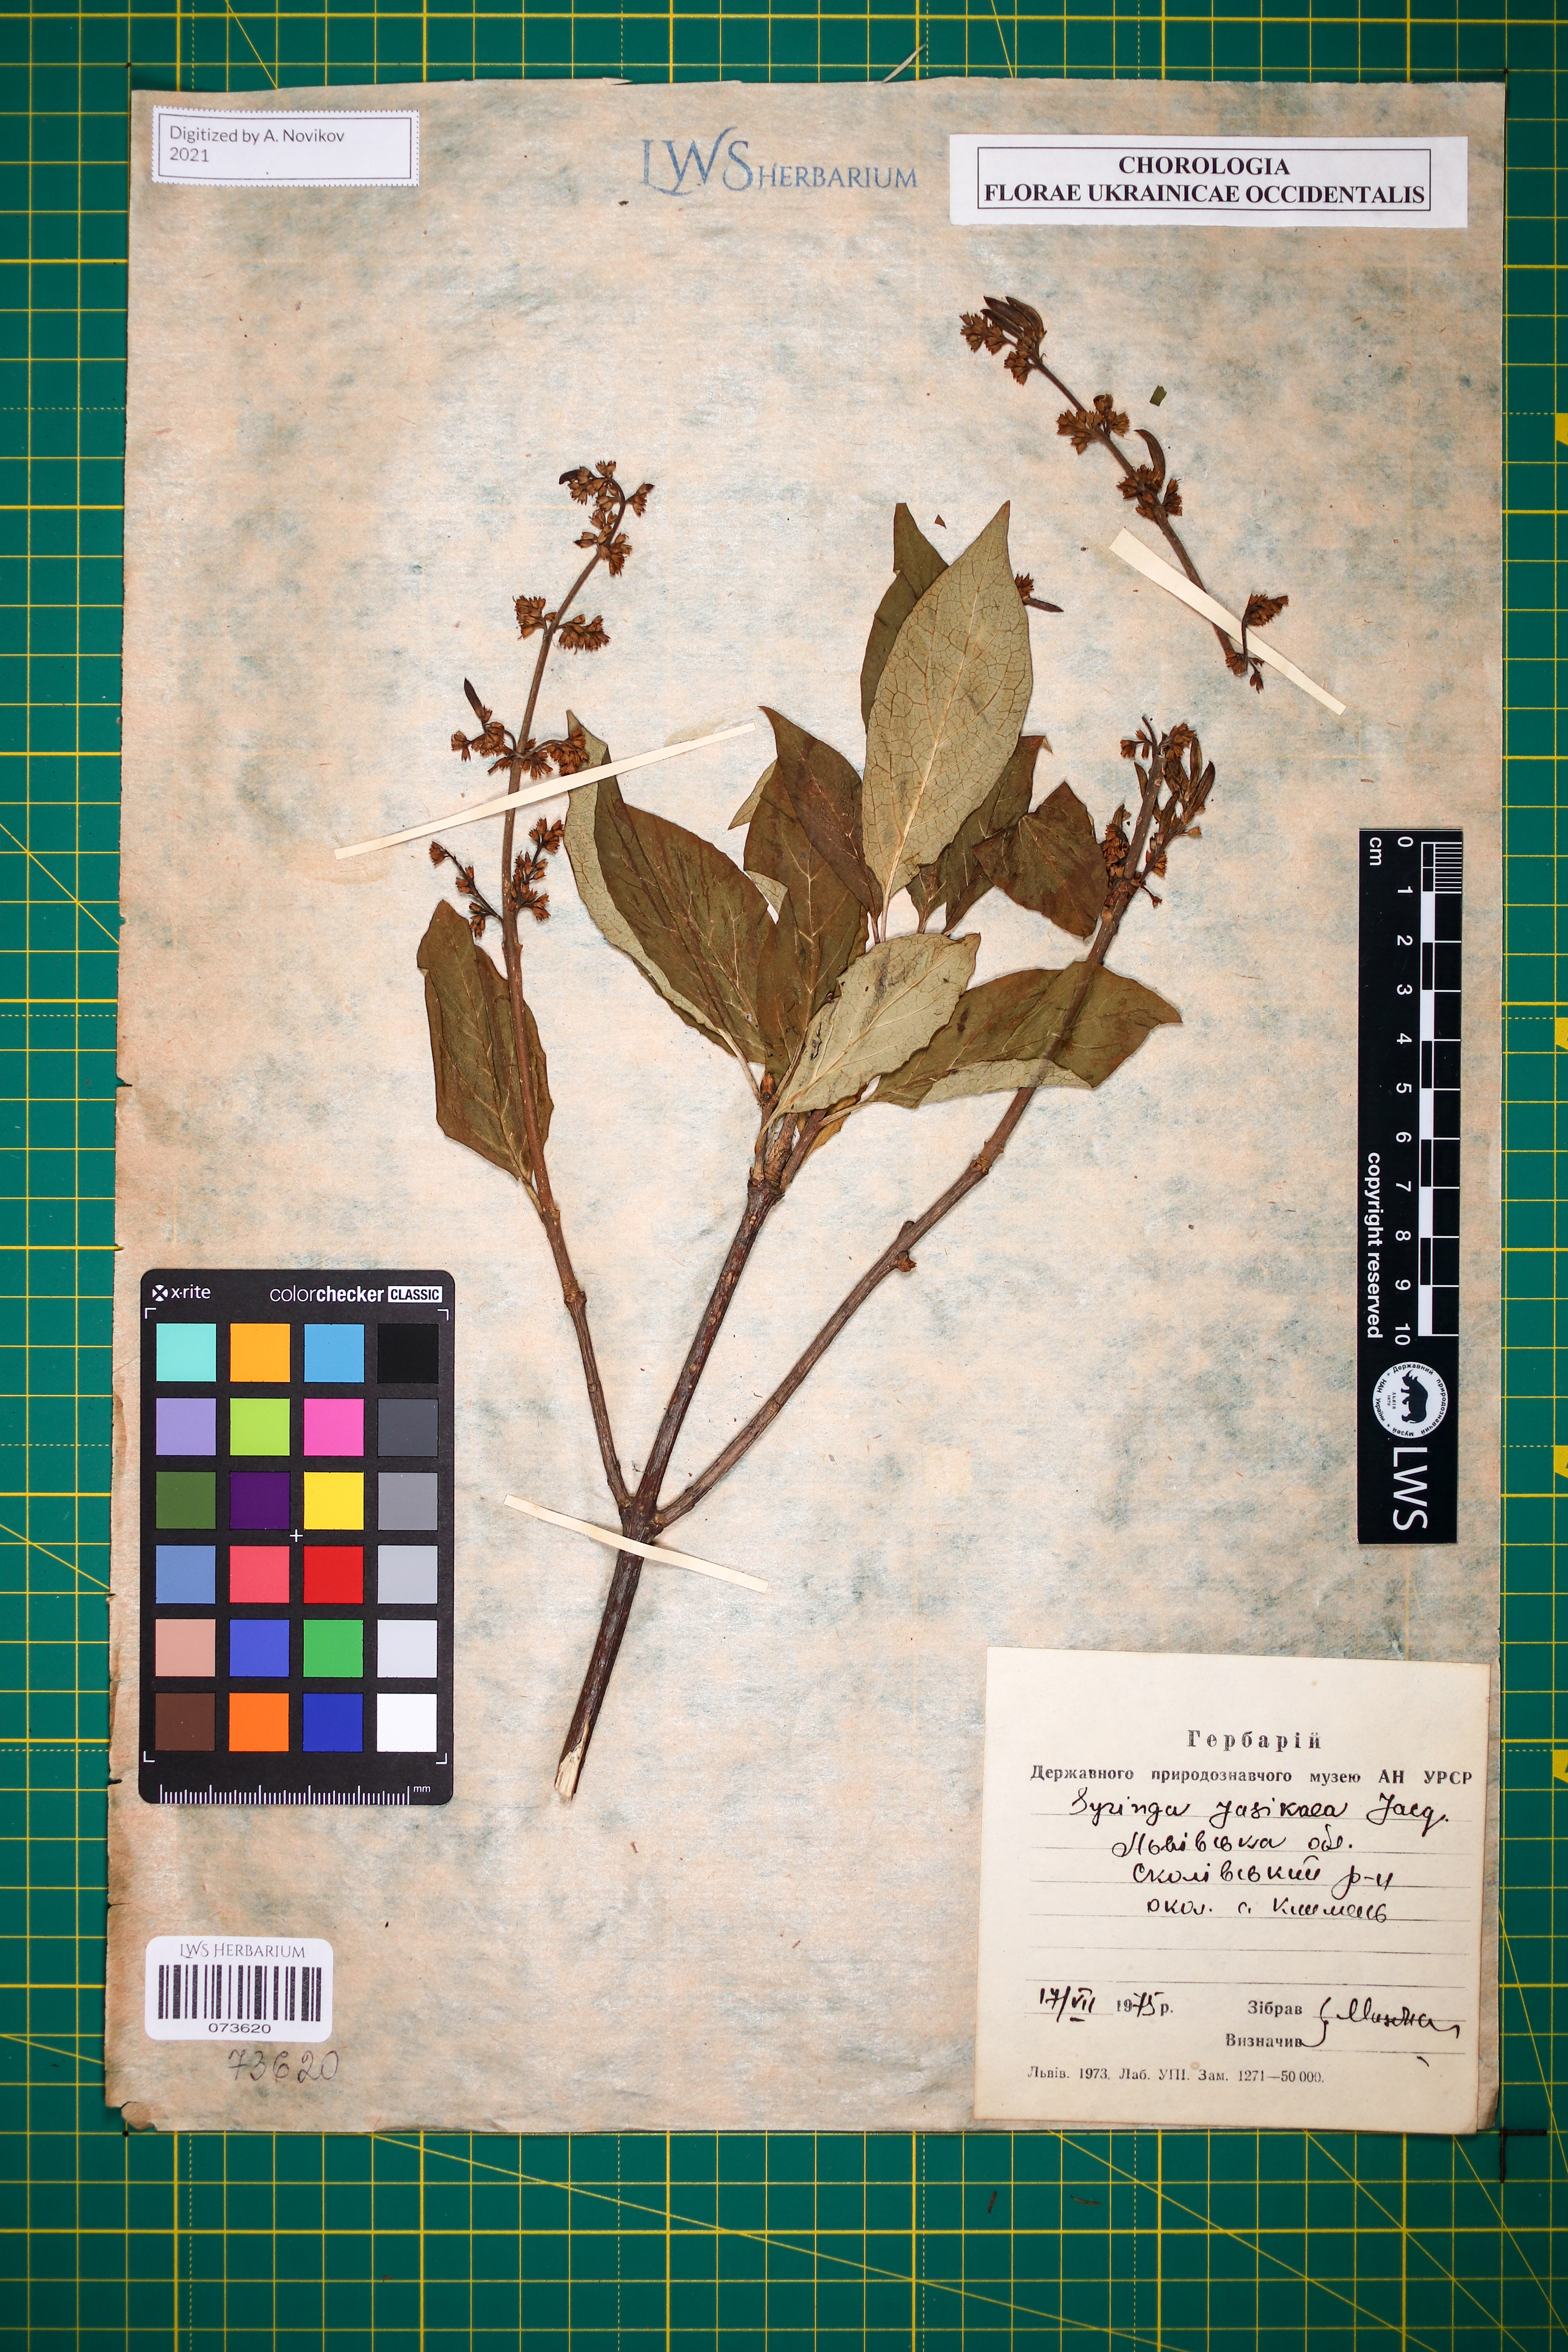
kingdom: Plantae
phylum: Tracheophyta
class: Magnoliopsida
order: Lamiales
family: Oleaceae
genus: Syringa
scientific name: Syringa josikaea
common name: Hungarian lilac
